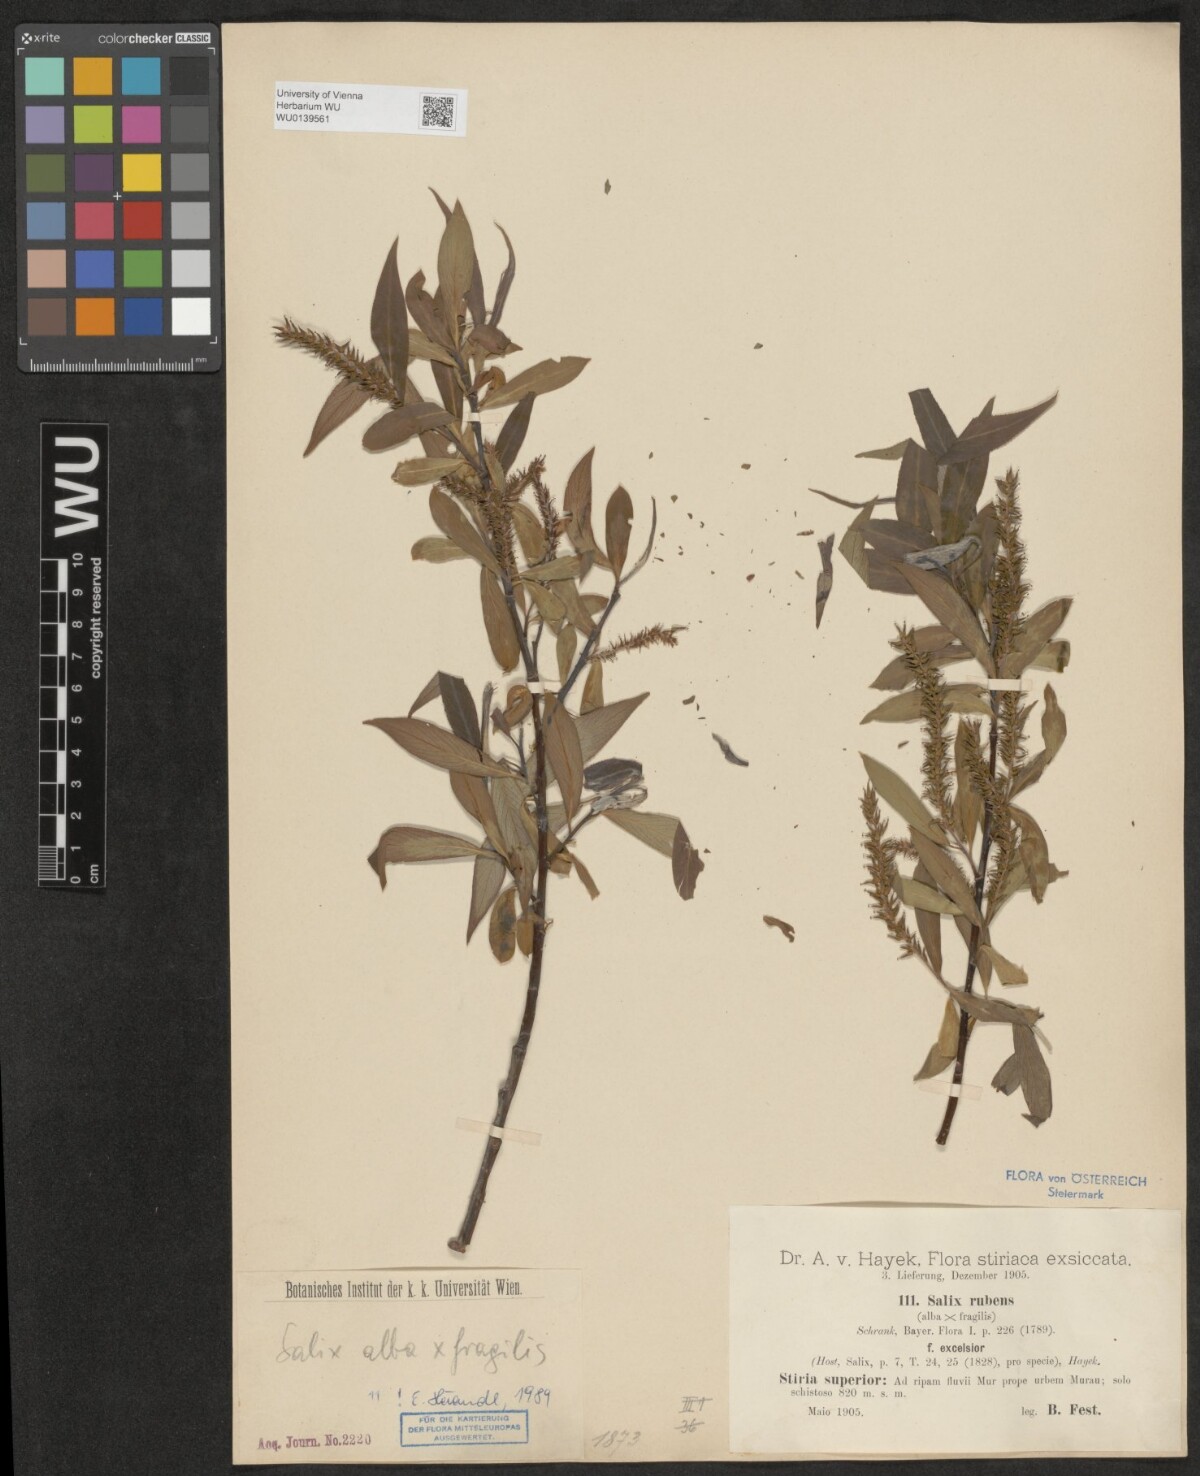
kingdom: Plantae
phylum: Tracheophyta
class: Magnoliopsida
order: Malpighiales
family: Salicaceae
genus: Salix
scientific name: Salix rubens
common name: Hybrid crack willow
